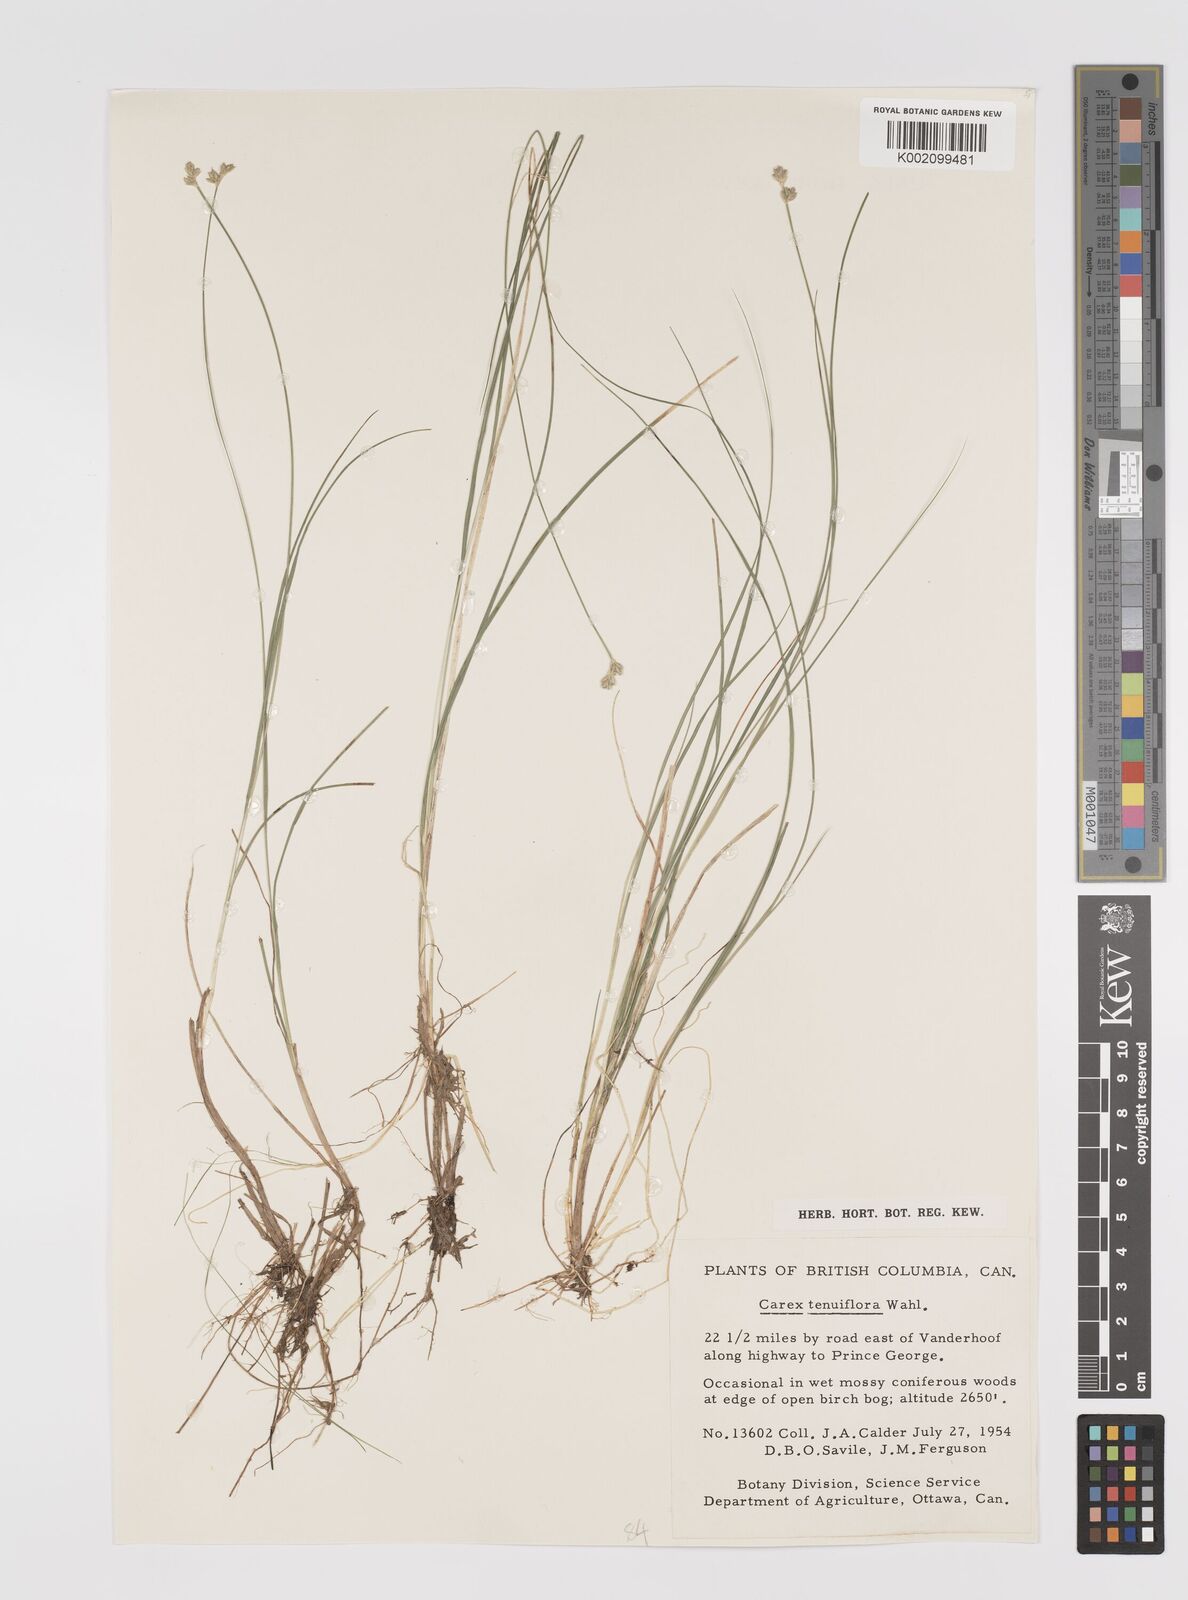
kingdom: Plantae
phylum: Tracheophyta
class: Liliopsida
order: Poales
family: Cyperaceae
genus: Carex
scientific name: Carex tenuiflora
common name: Sparse-flowered sedge
